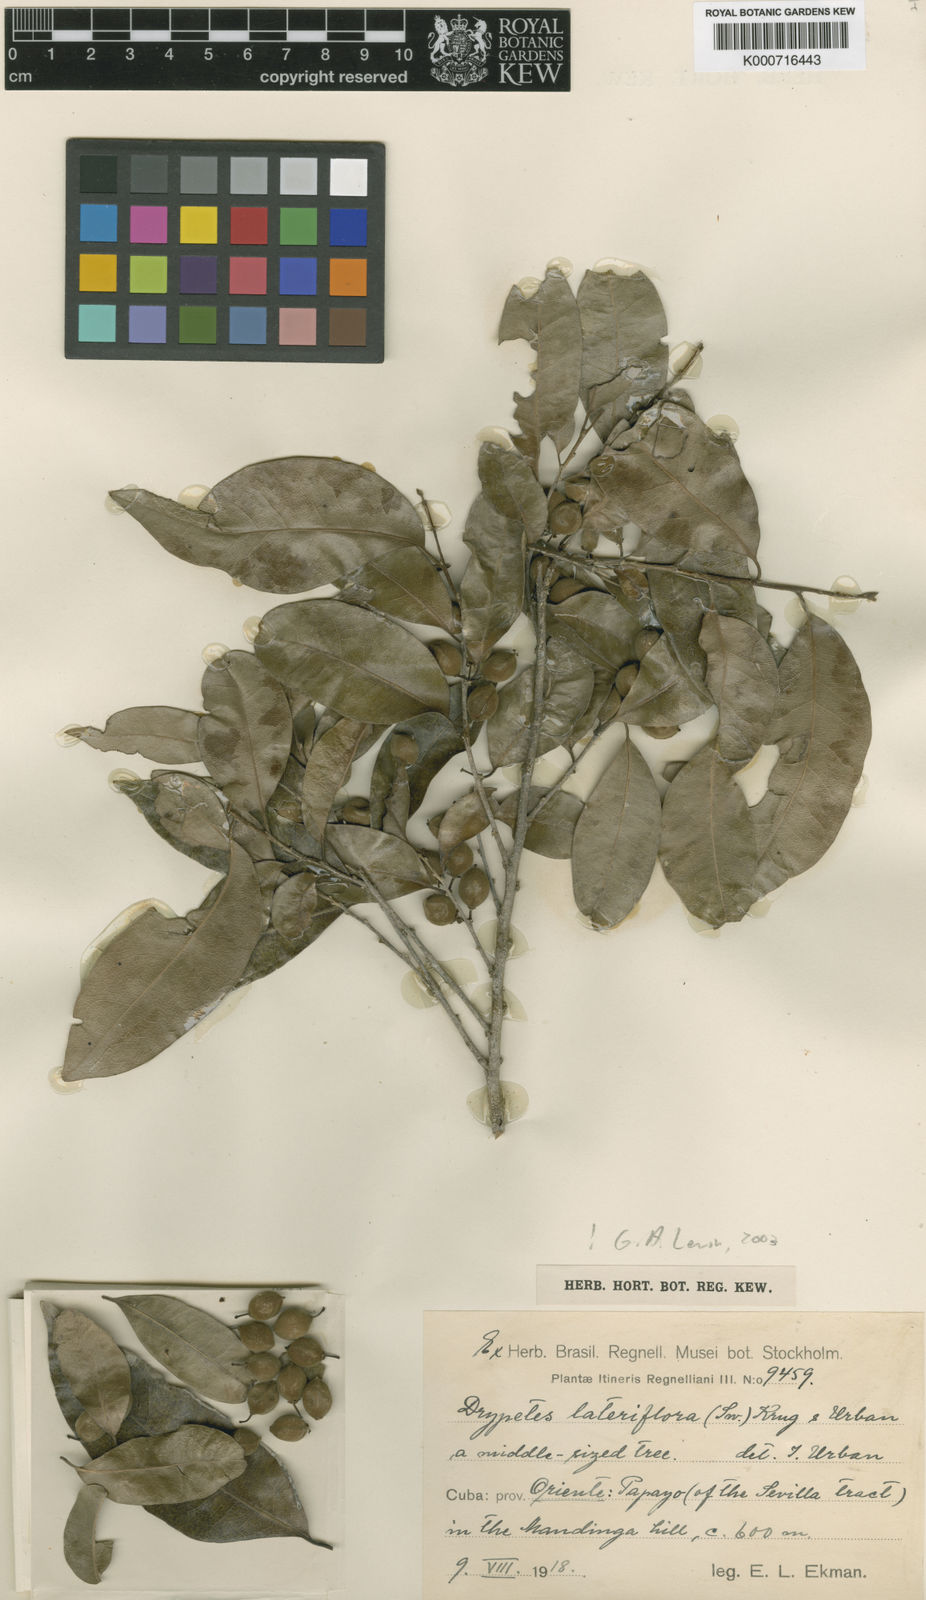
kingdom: Plantae
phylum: Tracheophyta
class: Magnoliopsida
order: Malpighiales
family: Putranjivaceae
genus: Drypetes
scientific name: Drypetes lateriflora
